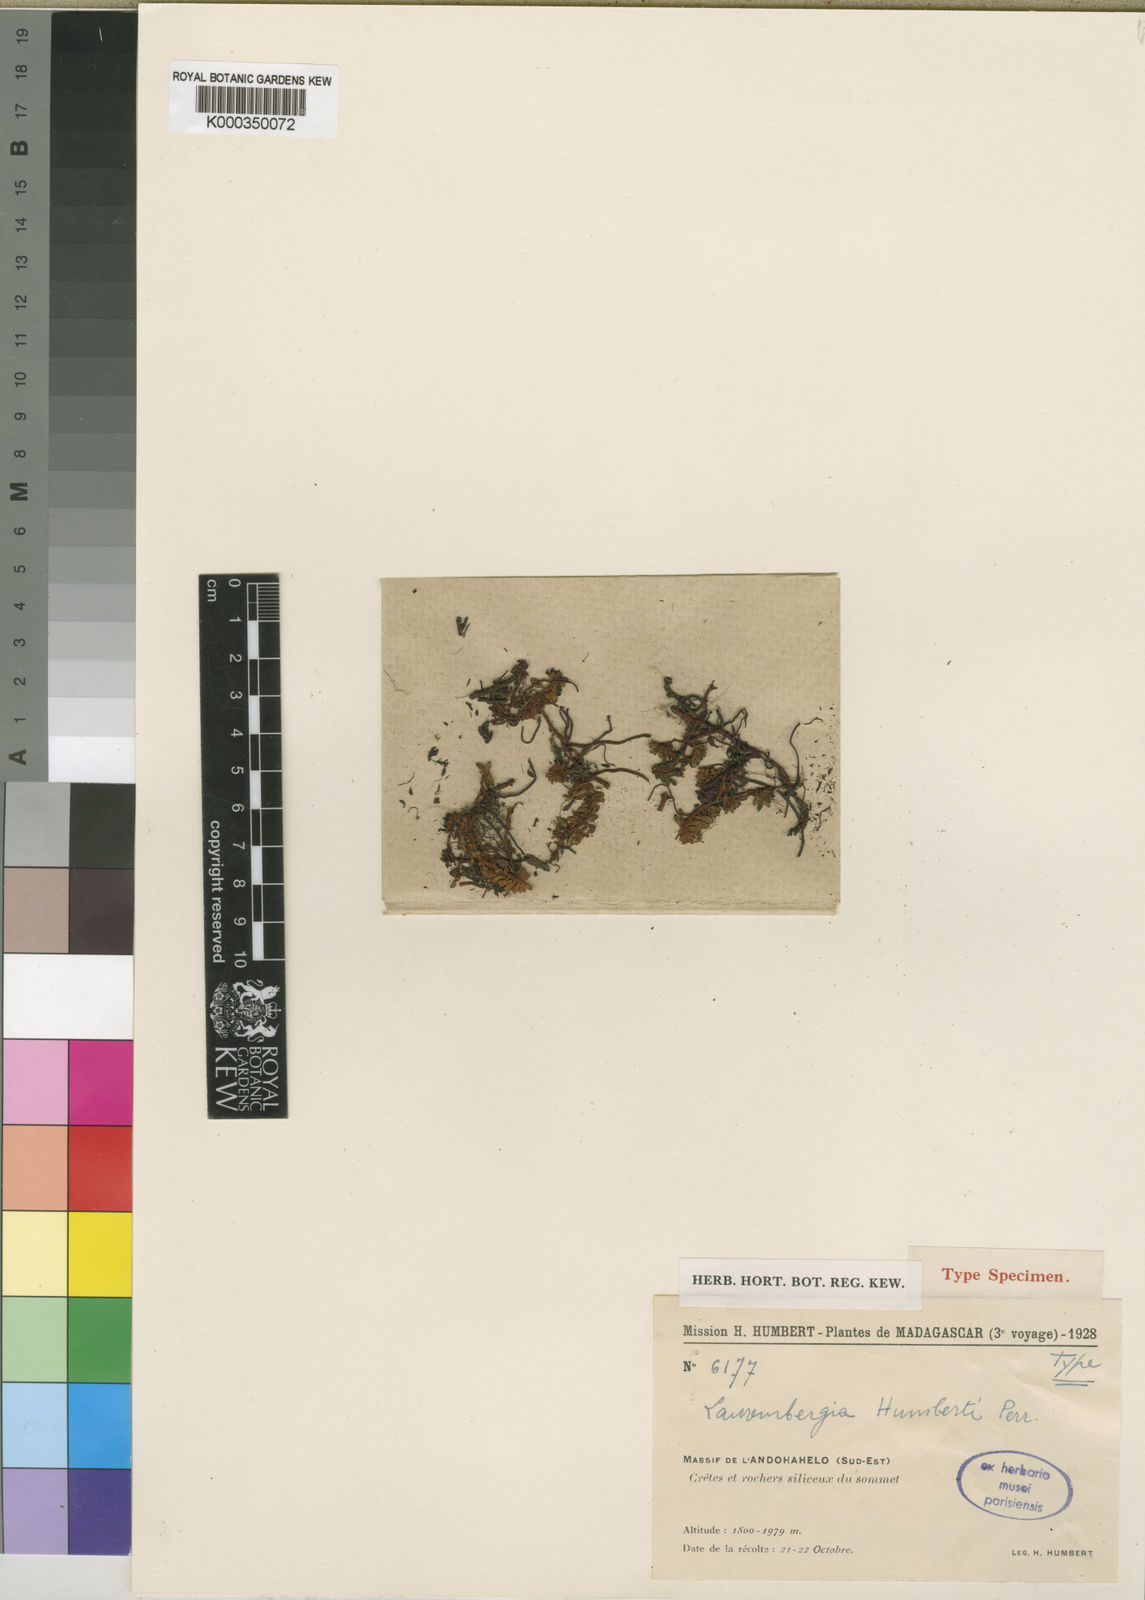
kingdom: Plantae
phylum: Tracheophyta
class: Magnoliopsida
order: Saxifragales
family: Haloragaceae
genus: Laurembergia
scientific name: Laurembergia veronicifolia
